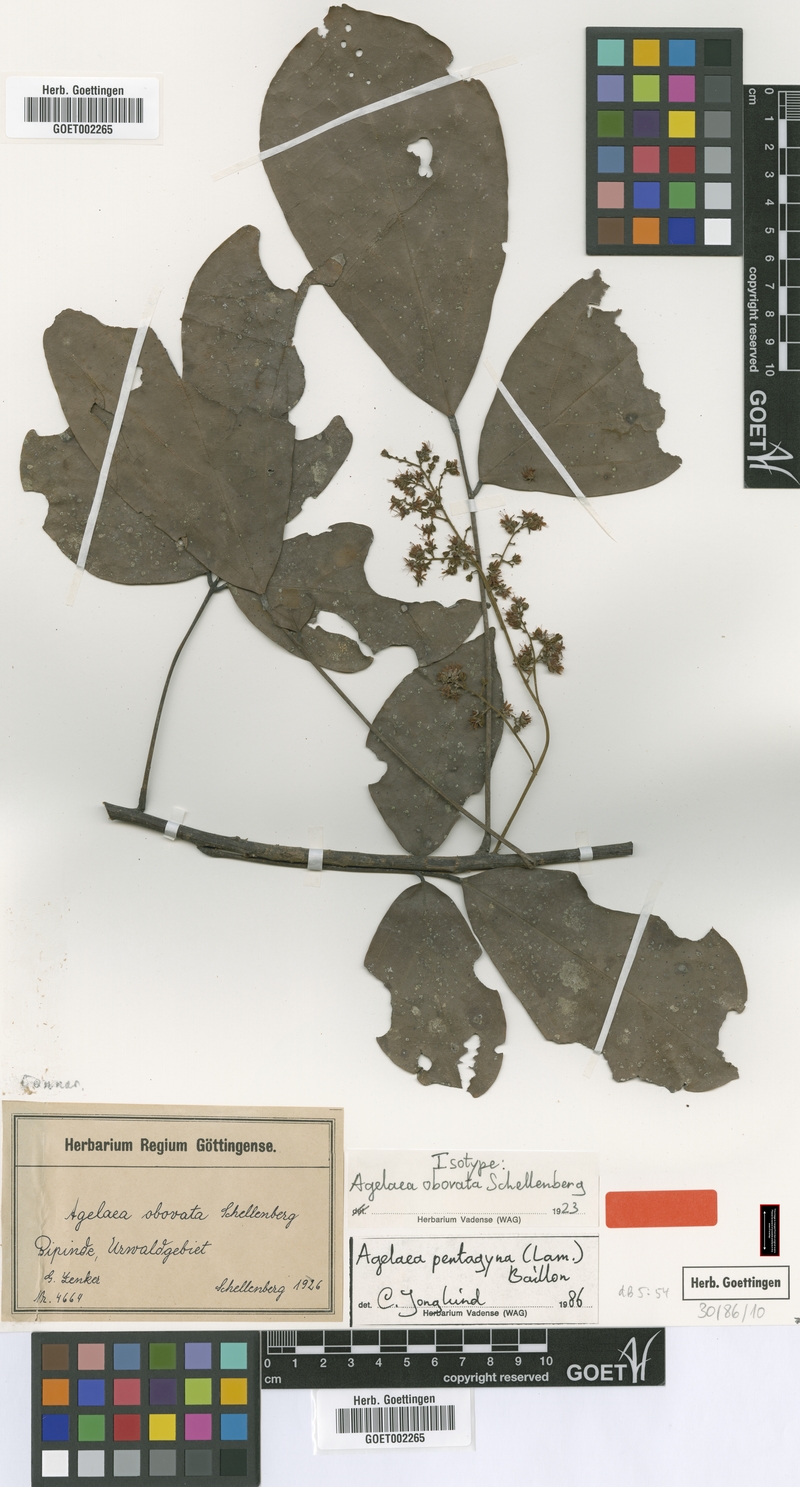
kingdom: Plantae
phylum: Tracheophyta
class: Magnoliopsida
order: Oxalidales
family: Connaraceae
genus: Agelaea
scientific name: Agelaea pentagyna
